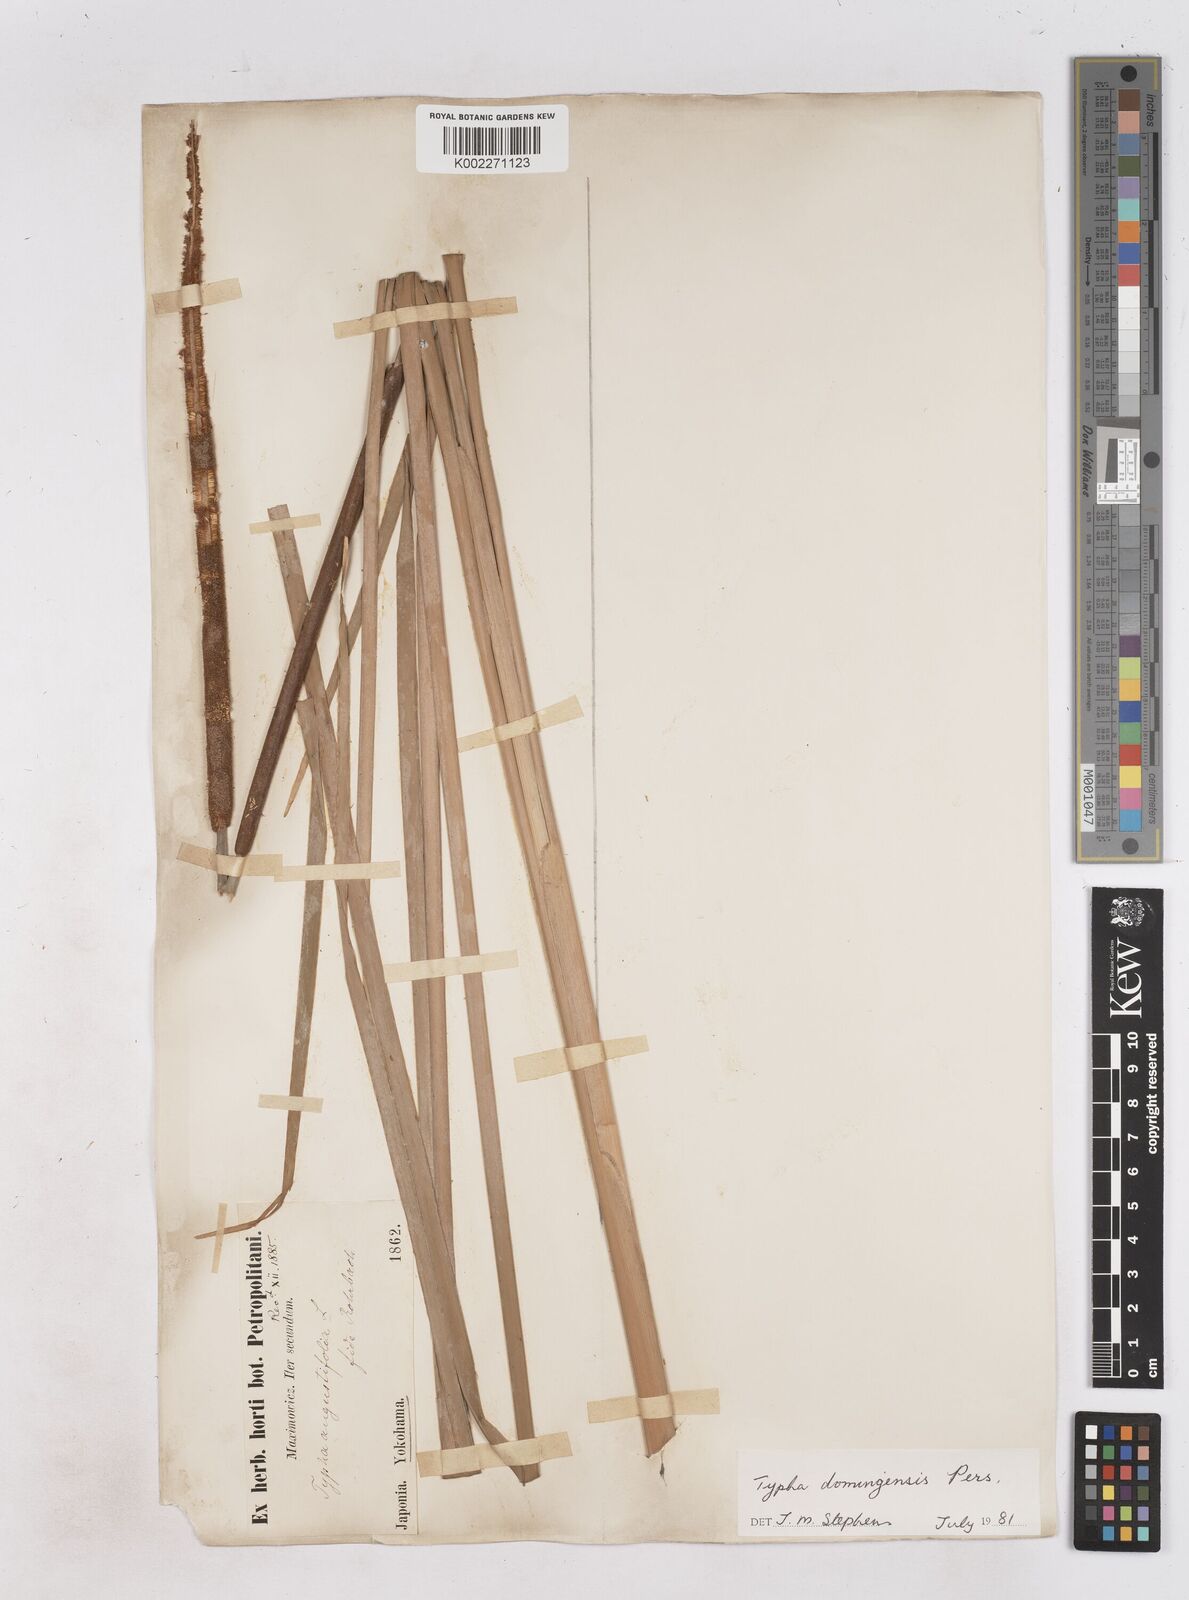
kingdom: Plantae
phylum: Tracheophyta
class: Liliopsida
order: Poales
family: Typhaceae
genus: Typha
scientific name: Typha domingensis
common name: Southern cattail
